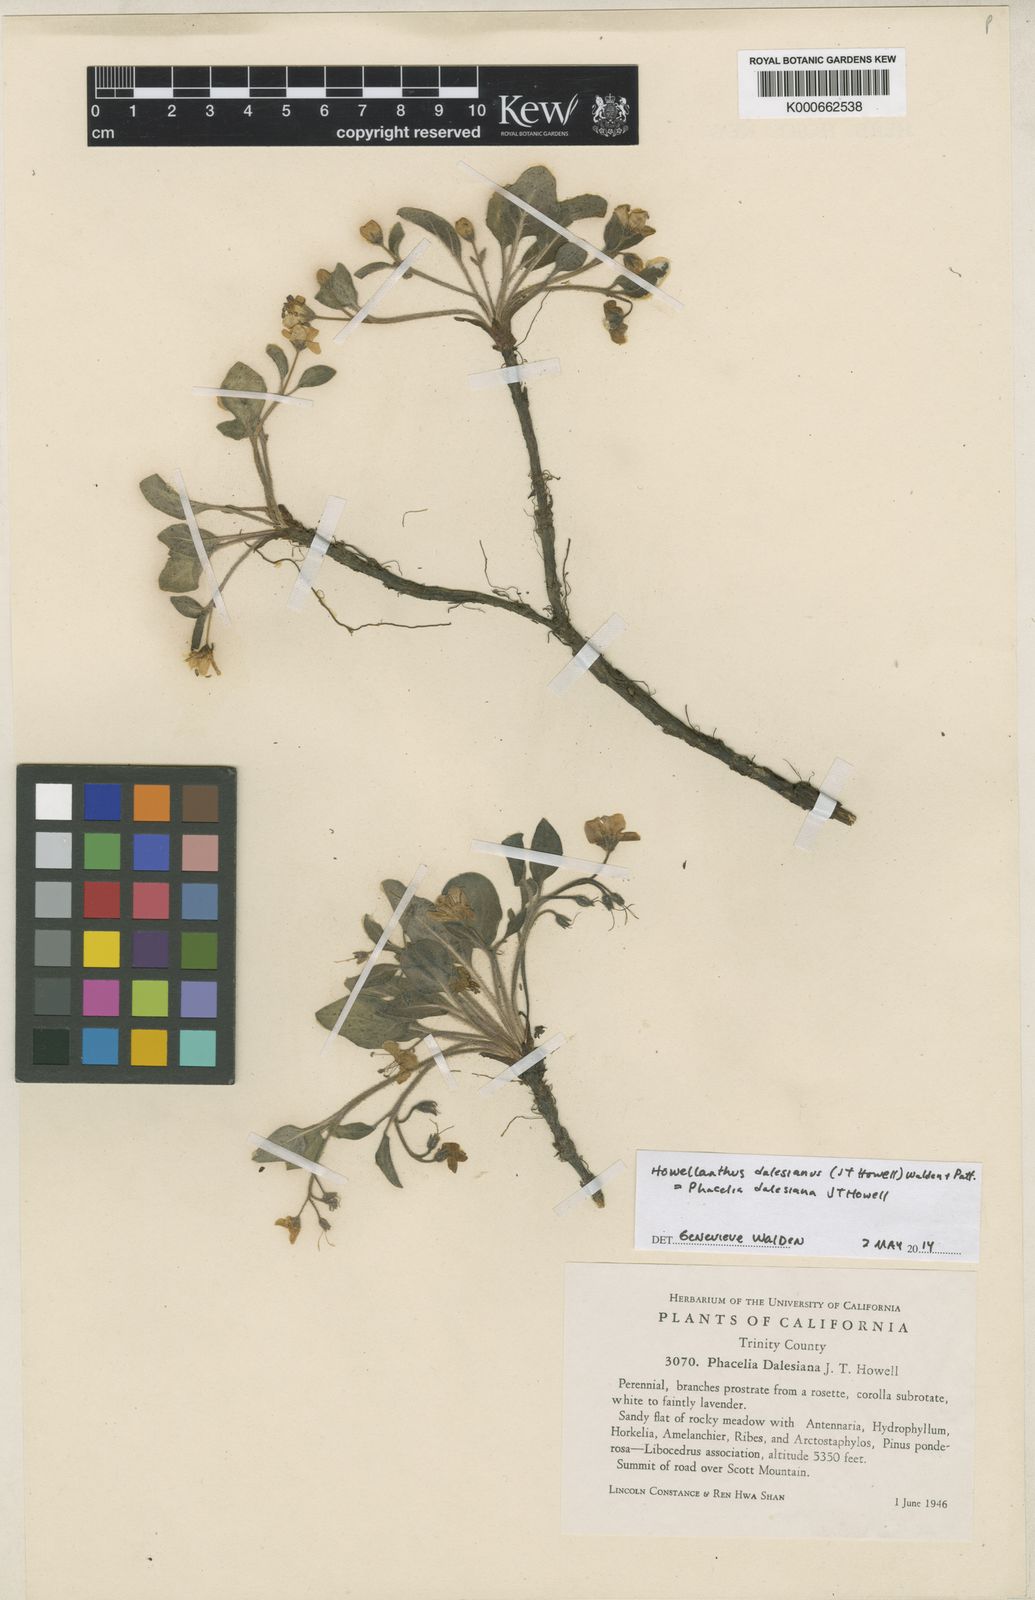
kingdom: Plantae
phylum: Tracheophyta
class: Magnoliopsida
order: Boraginales
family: Hydrophyllaceae
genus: Howellanthus
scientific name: Howellanthus dalesianus
